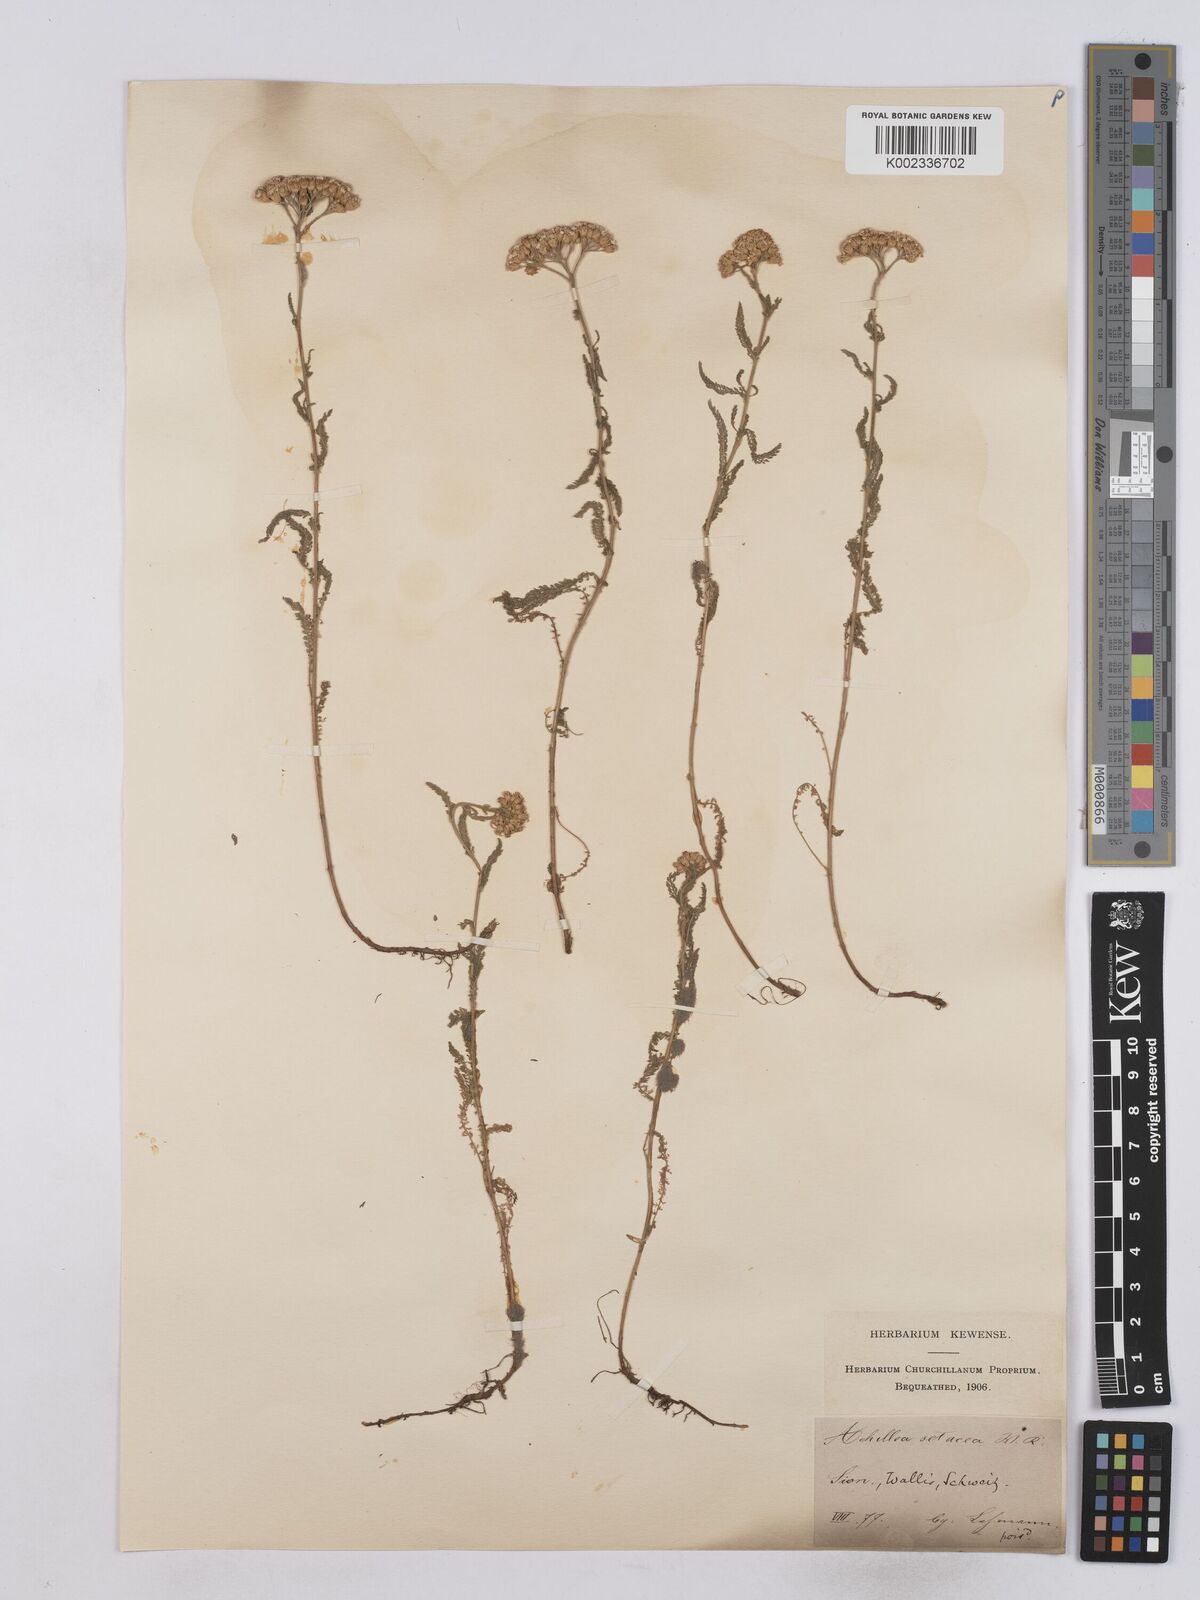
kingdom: Plantae
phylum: Tracheophyta
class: Magnoliopsida
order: Asterales
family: Asteraceae
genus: Achillea
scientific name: Achillea setacea
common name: Bristly yarrow
